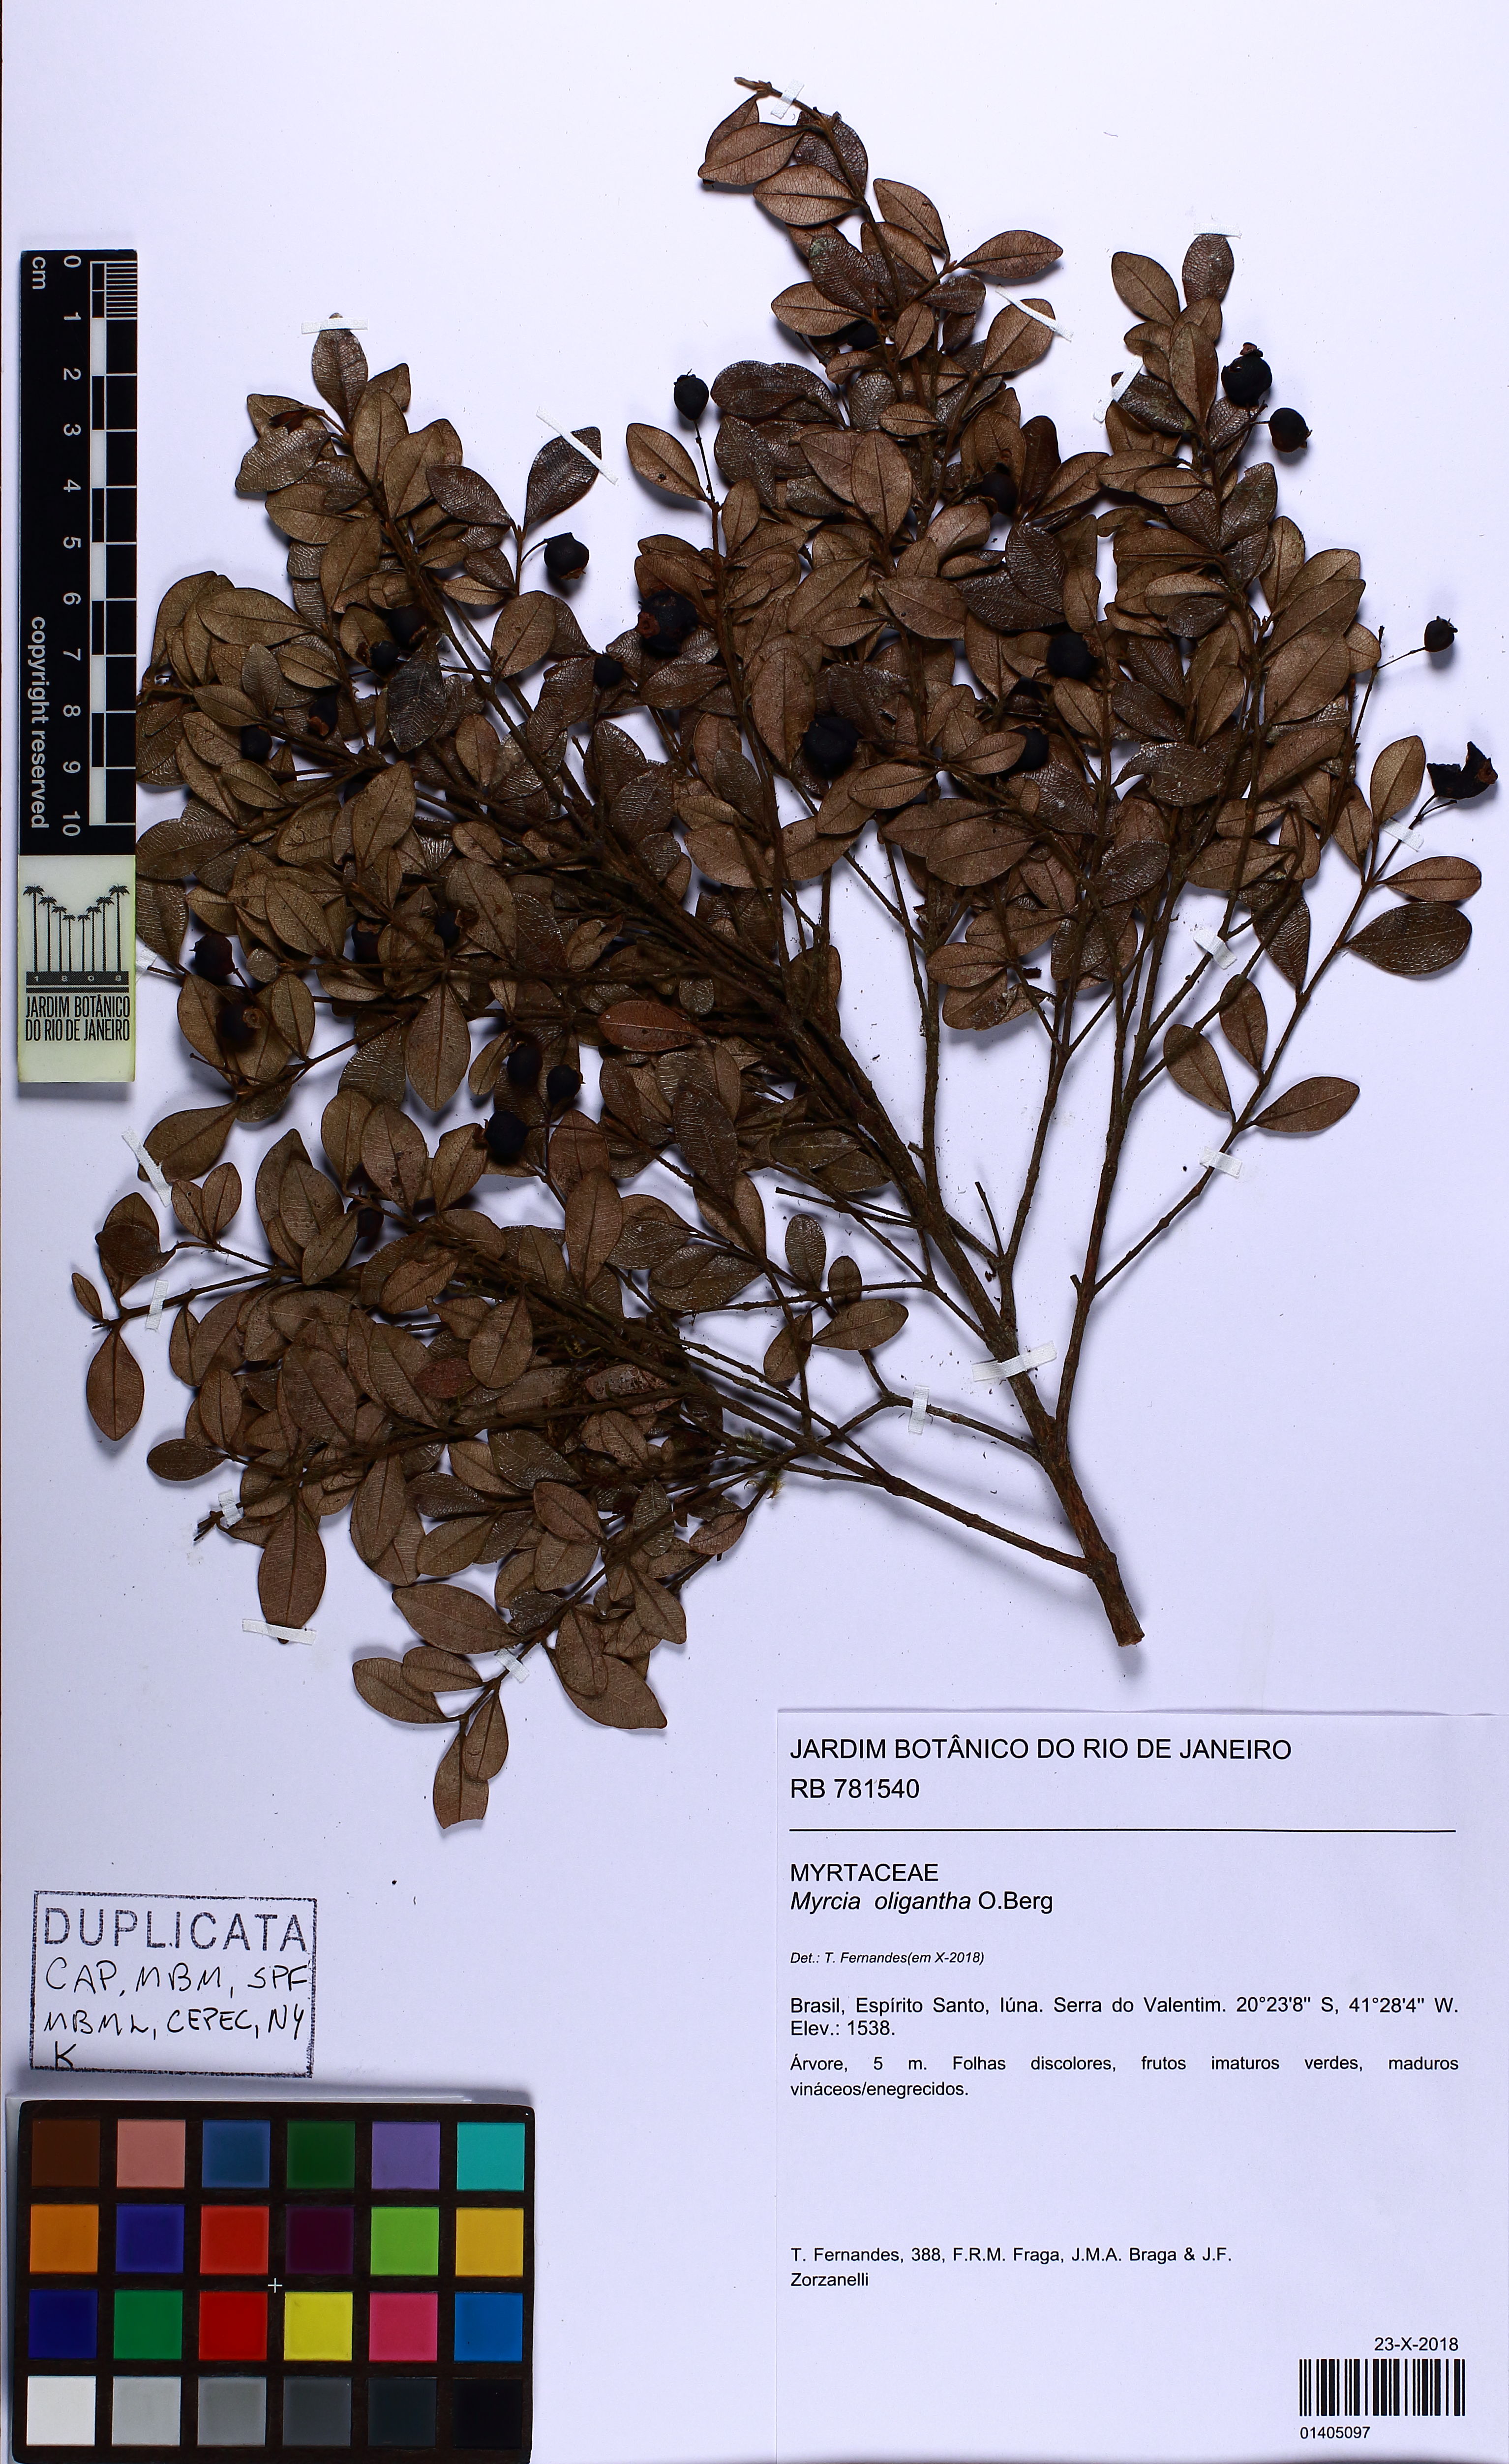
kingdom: Plantae
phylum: Tracheophyta
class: Magnoliopsida
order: Myrtales
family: Myrtaceae
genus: Myrcia
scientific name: Myrcia aethusa
